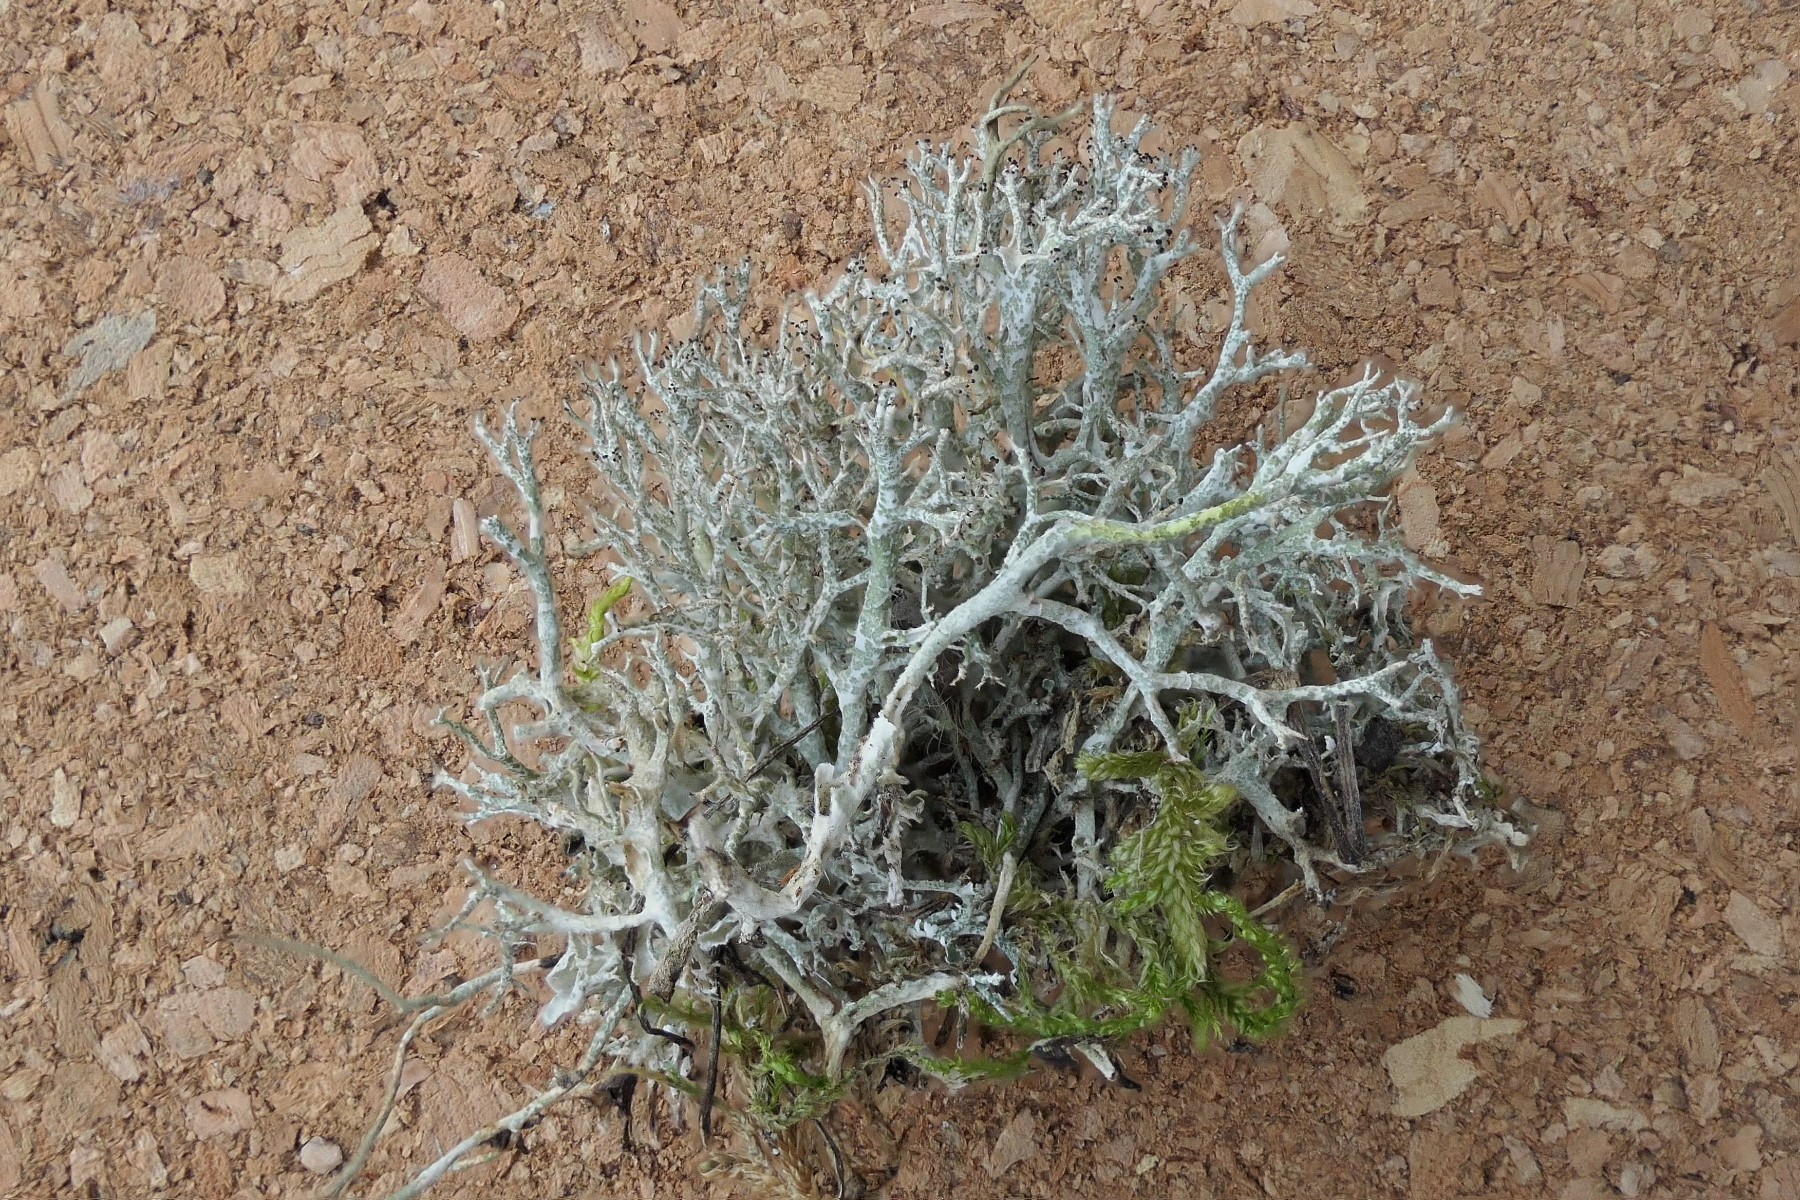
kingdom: Fungi
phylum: Ascomycota
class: Lecanoromycetes
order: Lecanorales
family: Cladoniaceae
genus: Cladonia
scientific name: Cladonia rangiformis
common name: spættet bægerlav
